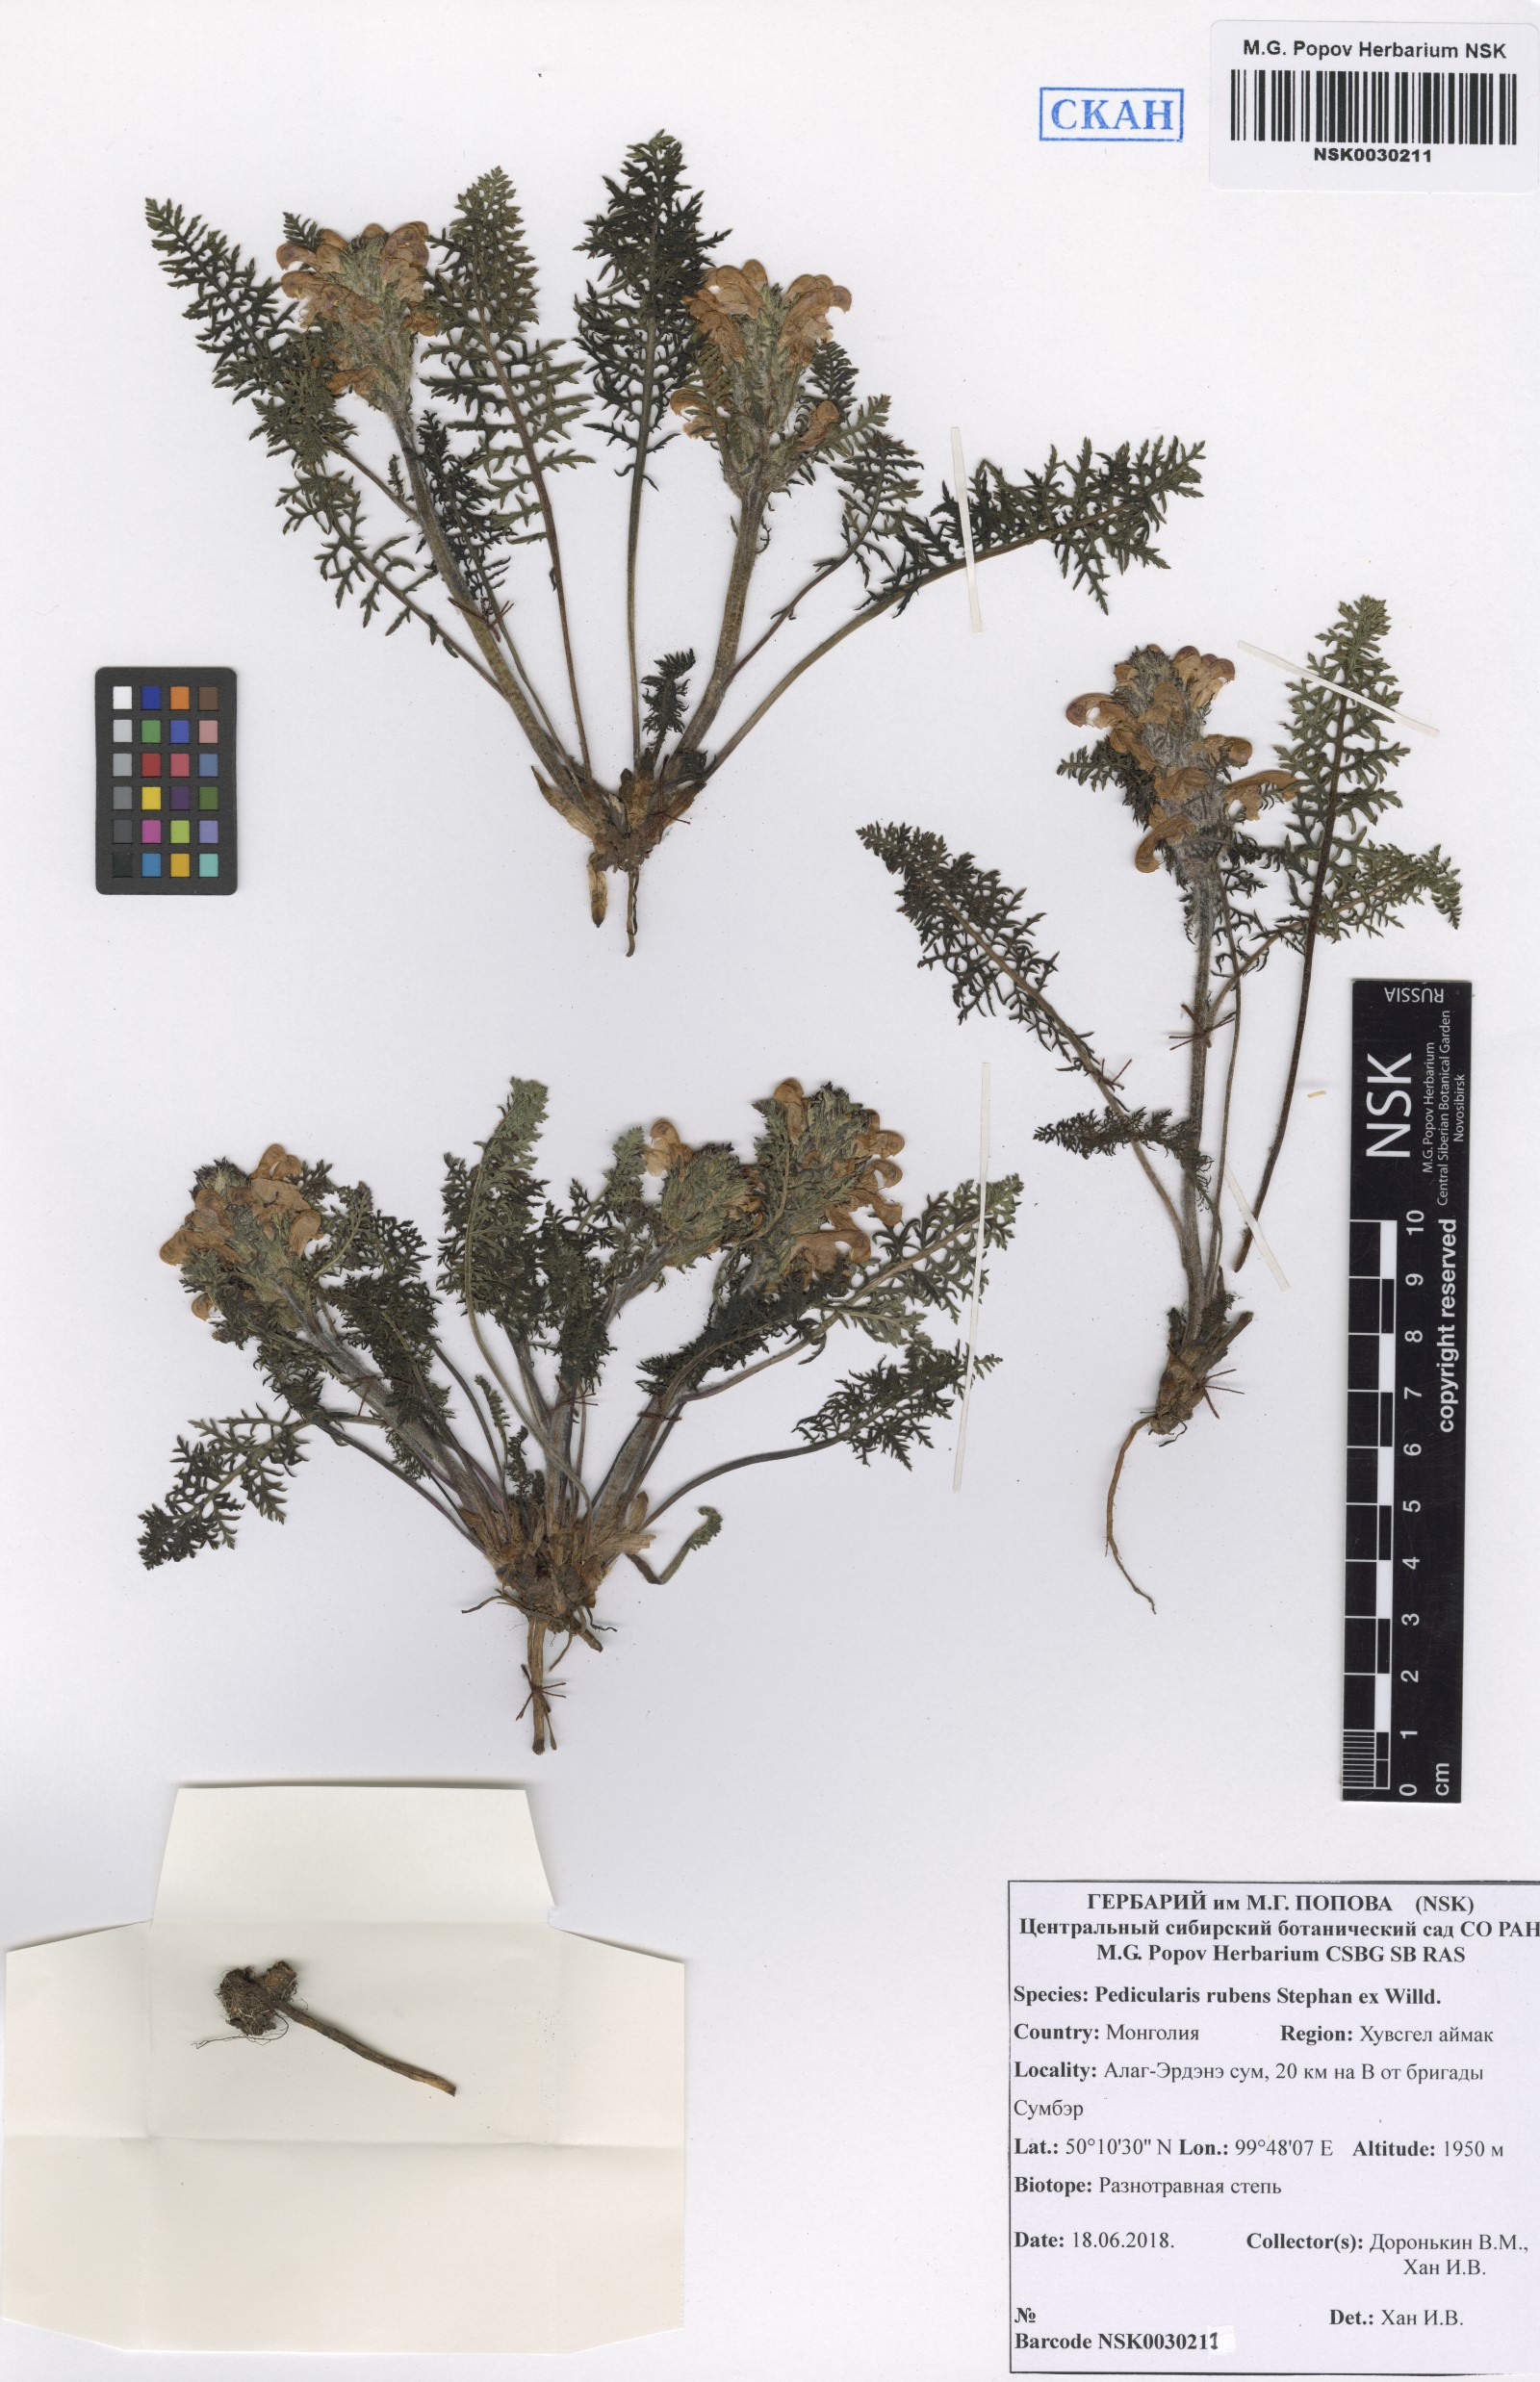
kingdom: Plantae
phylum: Tracheophyta
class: Magnoliopsida
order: Lamiales
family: Orobanchaceae
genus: Pedicularis
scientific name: Pedicularis rubens
